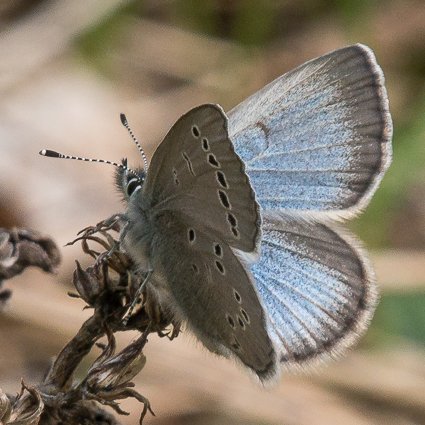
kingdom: Animalia
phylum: Arthropoda
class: Insecta
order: Lepidoptera
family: Lycaenidae
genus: Glaucopsyche
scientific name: Glaucopsyche lygdamus
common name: Silvery Blue
